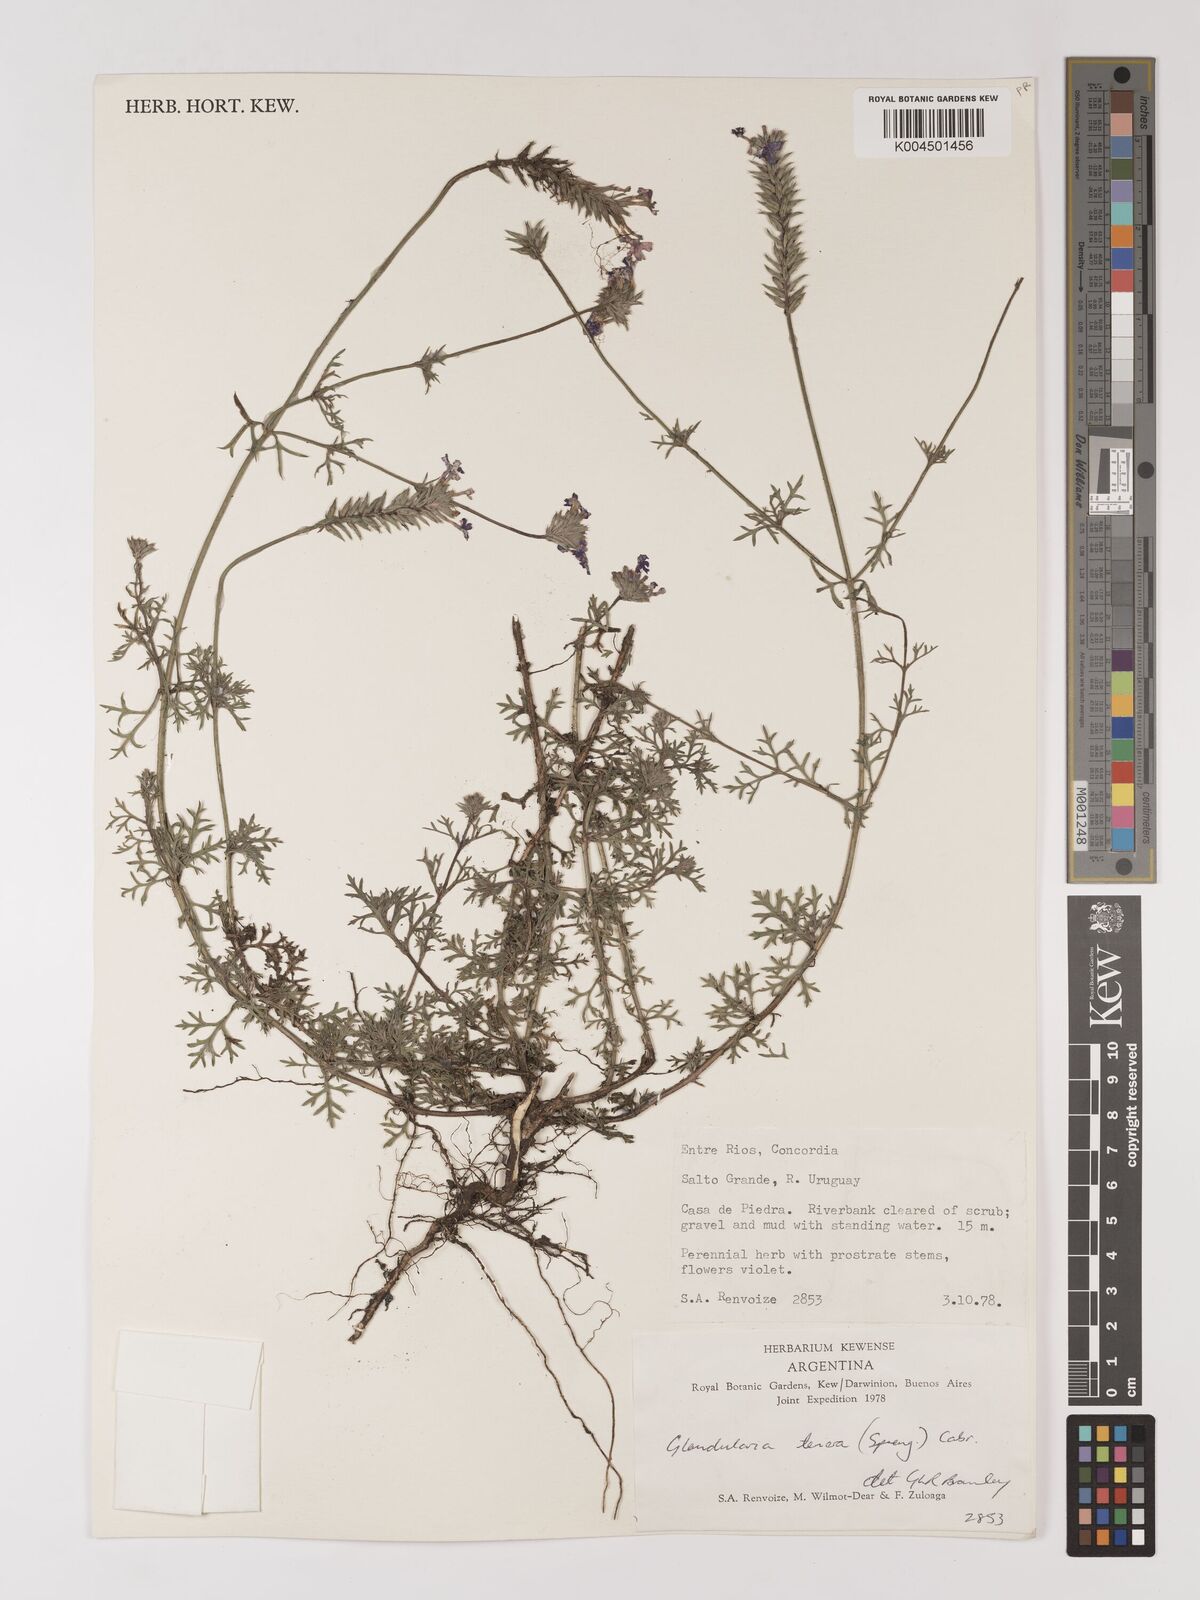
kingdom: Plantae
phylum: Tracheophyta
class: Magnoliopsida
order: Lamiales
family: Verbenaceae
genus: Verbena
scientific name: Verbena tenera
